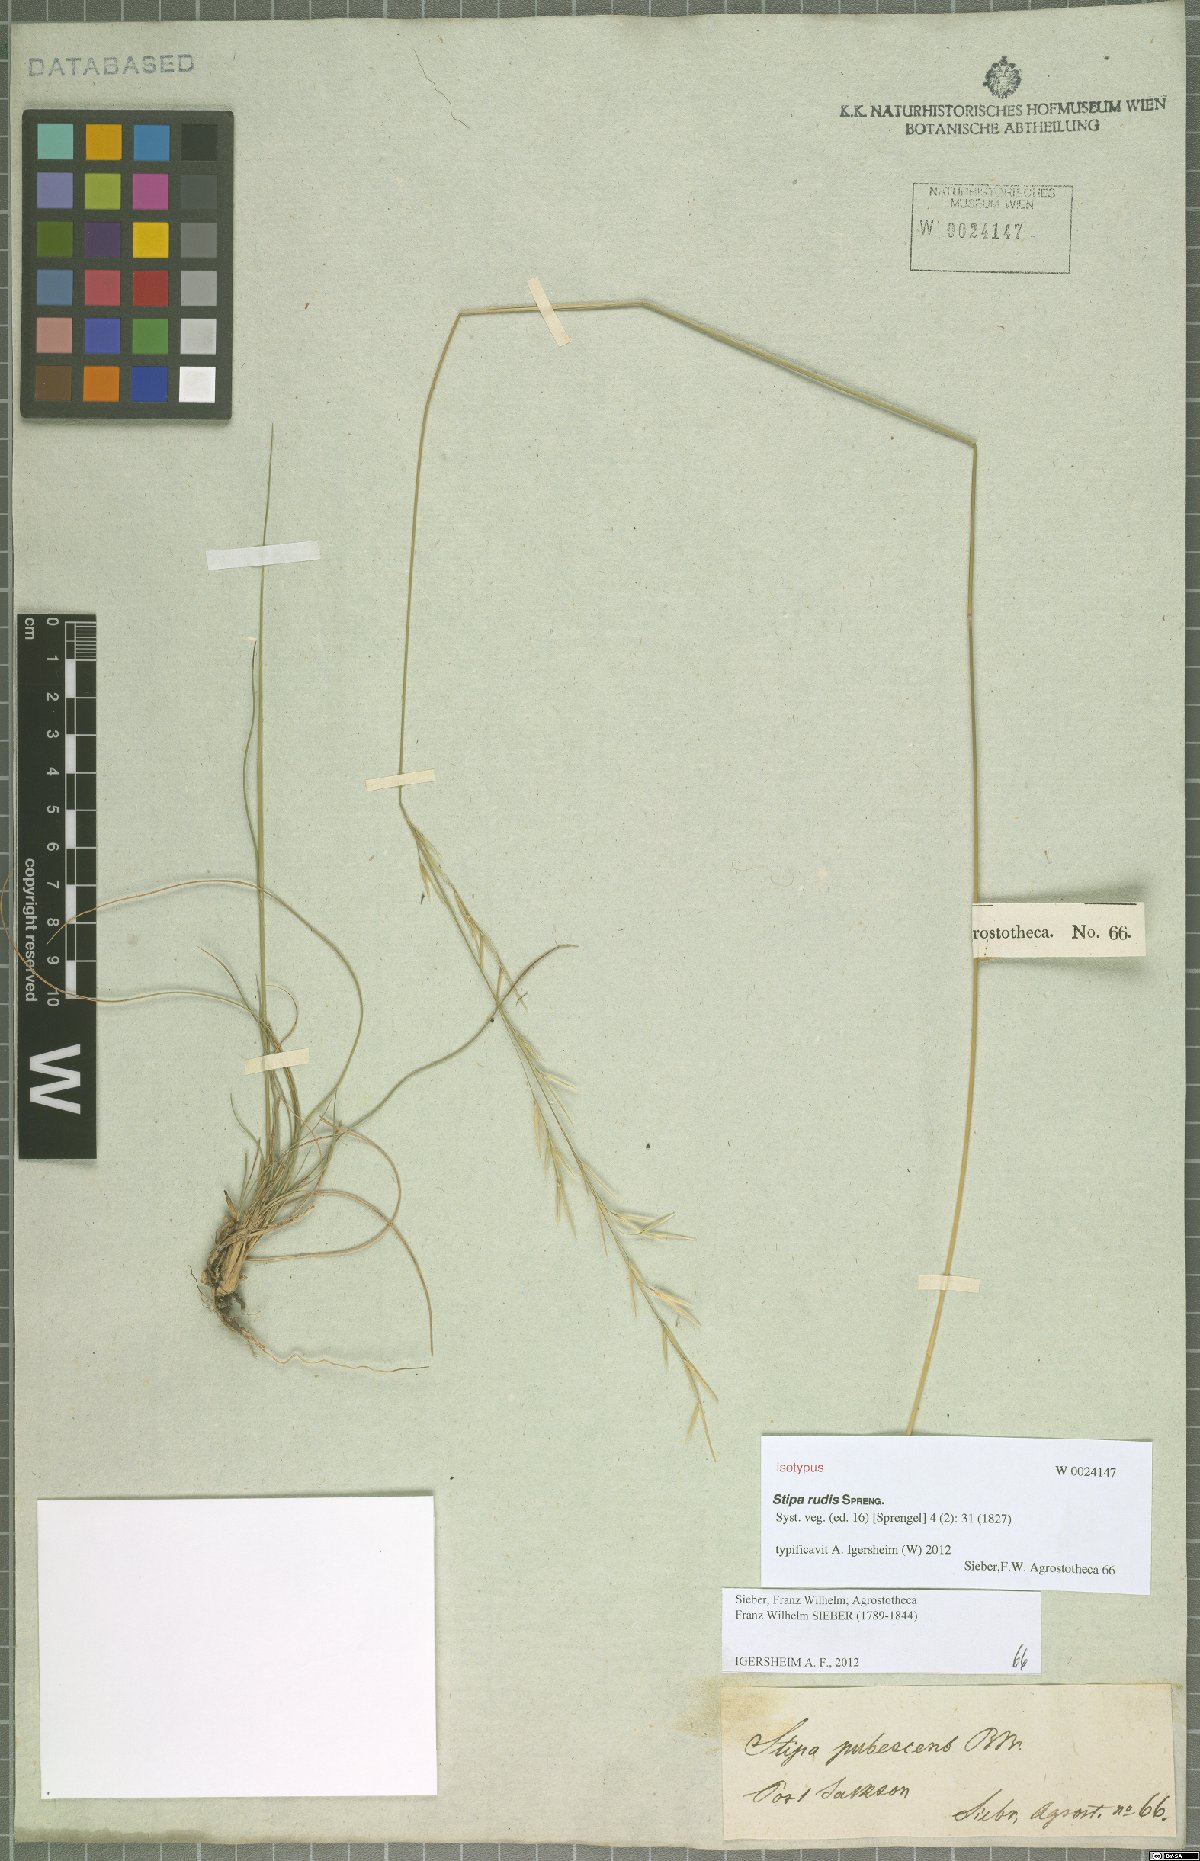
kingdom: Plantae
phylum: Tracheophyta
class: Liliopsida
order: Poales
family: Poaceae
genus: Austrostipa
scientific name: Austrostipa rudis
